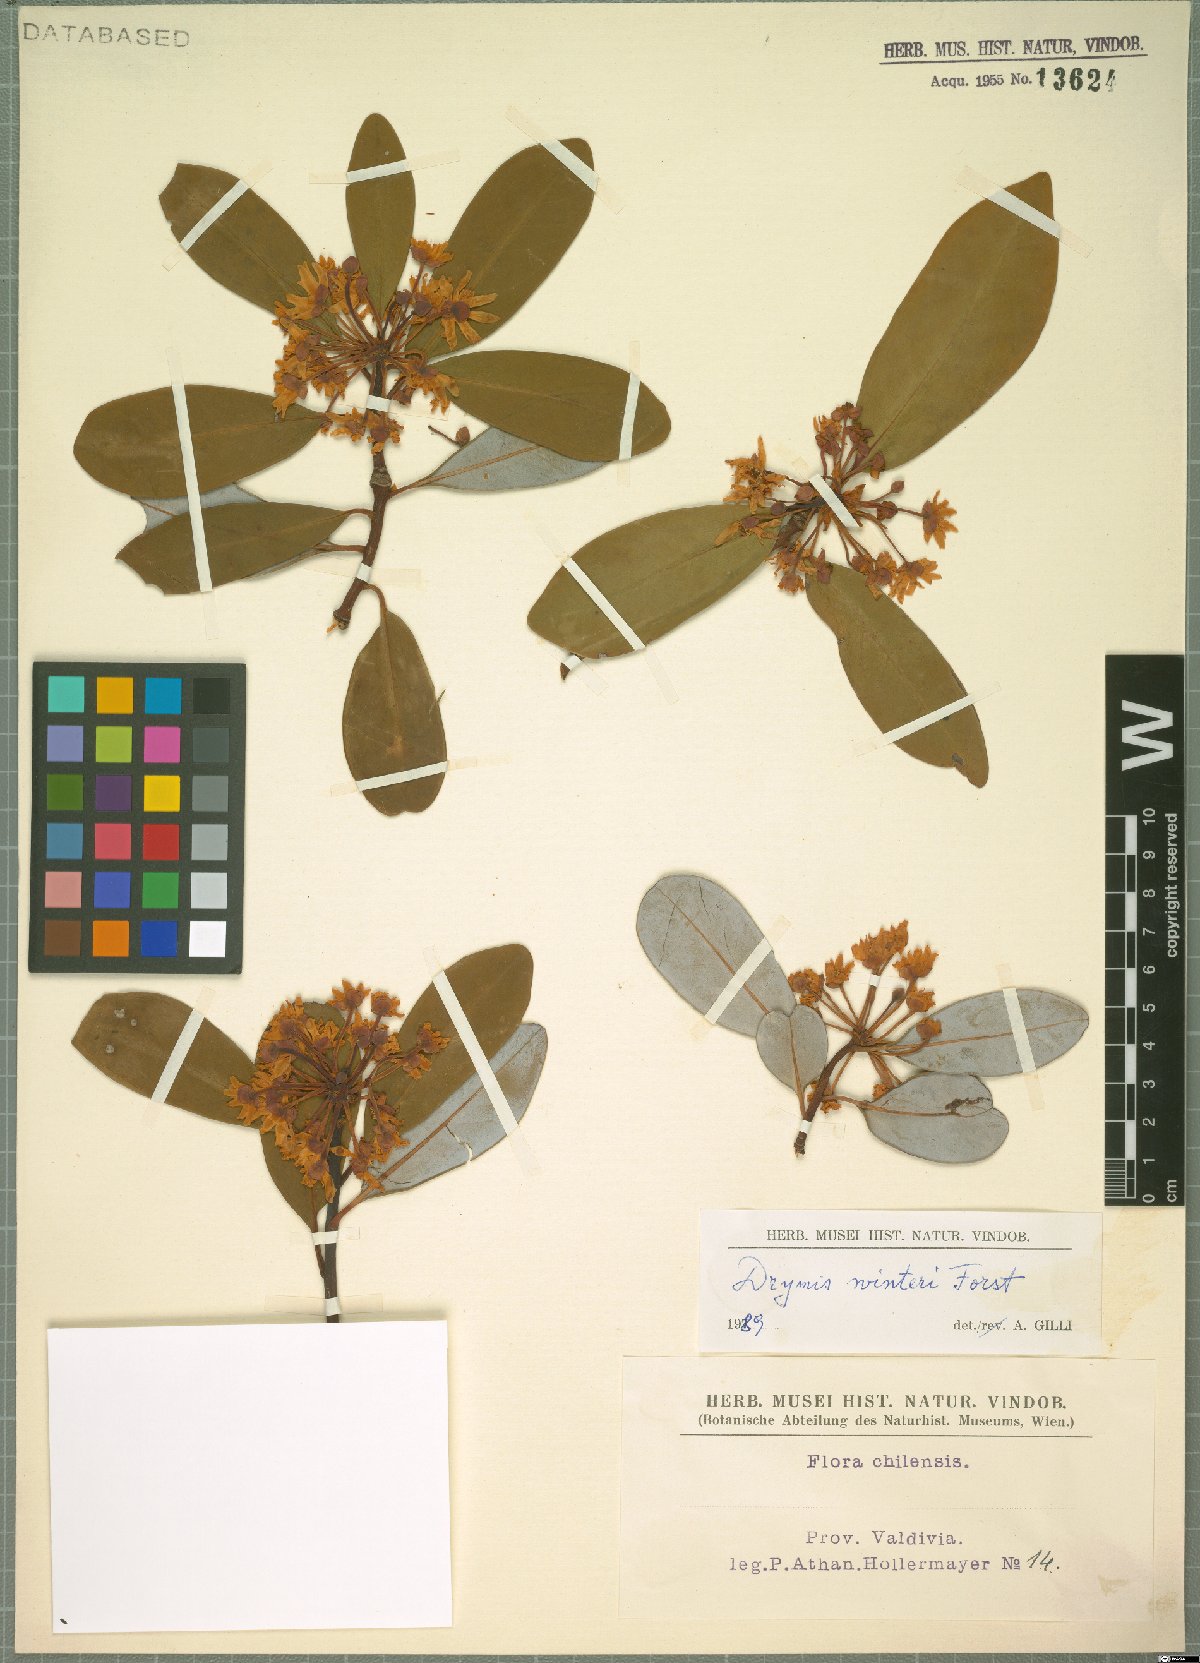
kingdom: Plantae
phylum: Tracheophyta
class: Magnoliopsida
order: Canellales
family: Winteraceae
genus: Drimys
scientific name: Drimys winteri
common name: Winter's-bark
